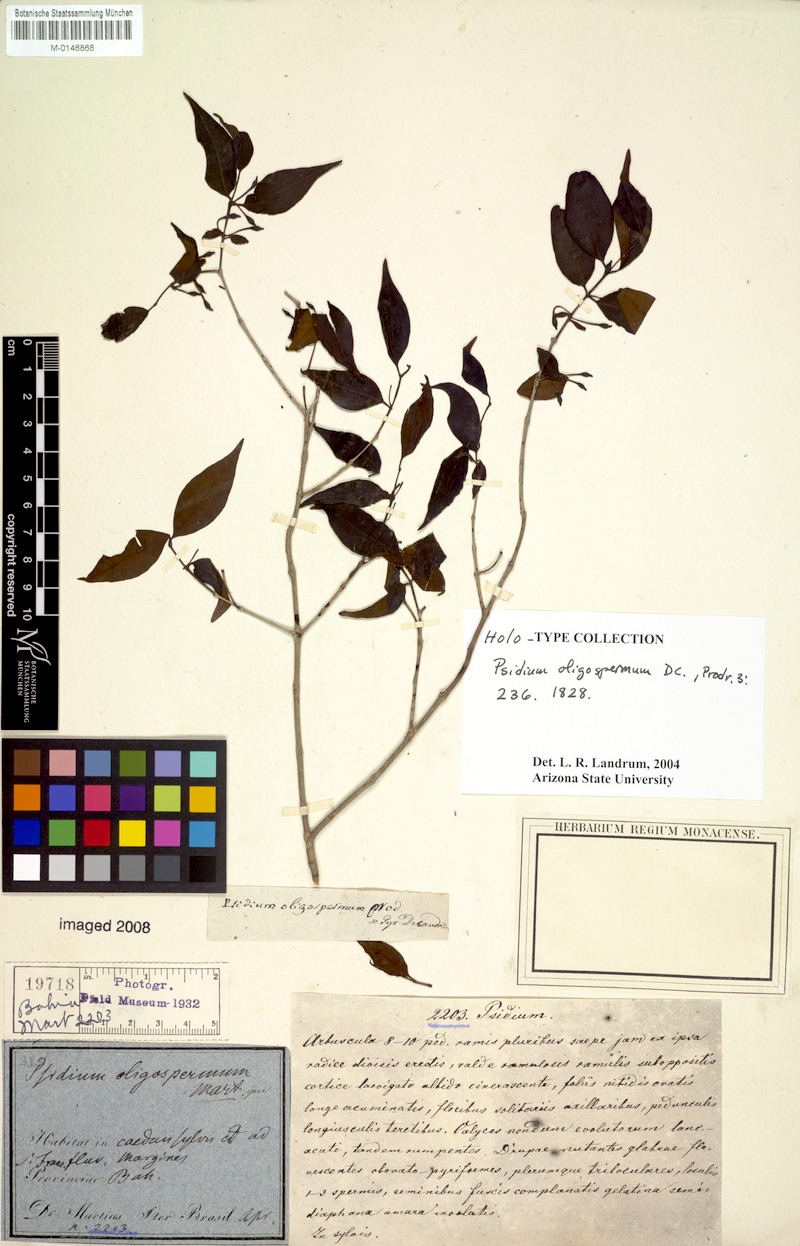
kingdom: Plantae
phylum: Tracheophyta
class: Magnoliopsida
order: Myrtales
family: Myrtaceae
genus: Psidium
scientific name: Psidium oligospermum
